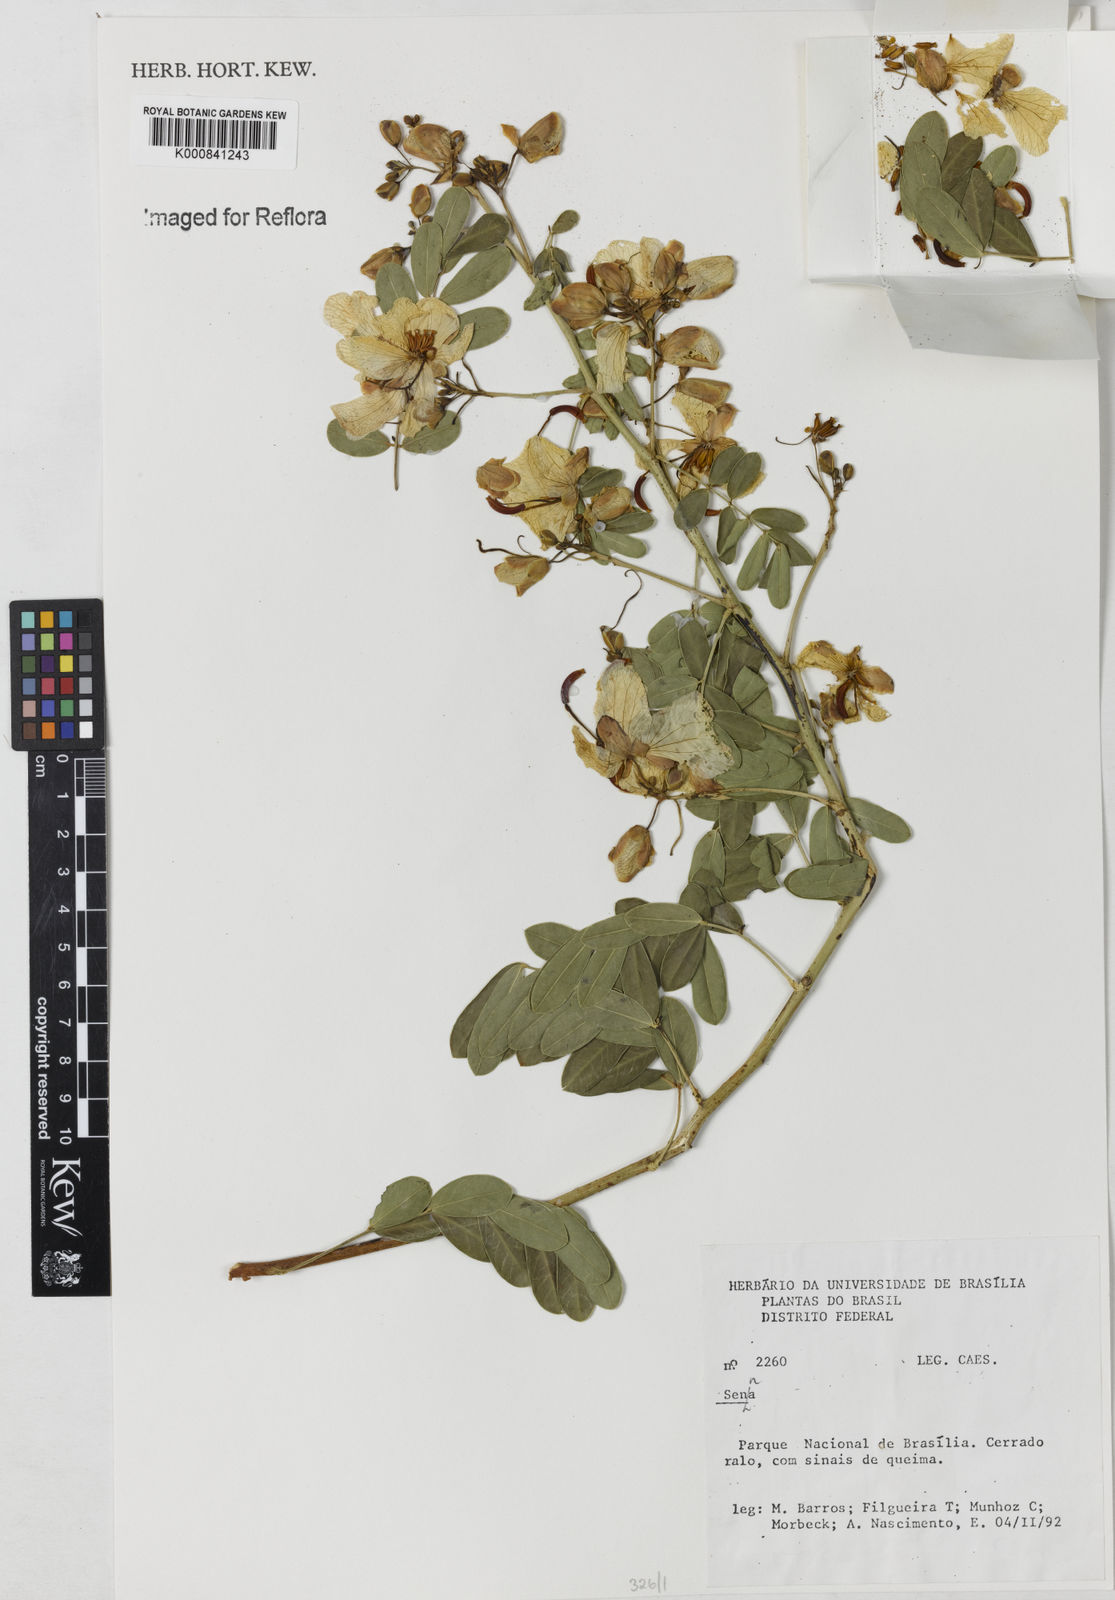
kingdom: Plantae
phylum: Tracheophyta
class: Magnoliopsida
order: Fabales
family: Fabaceae
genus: Senna
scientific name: Senna
